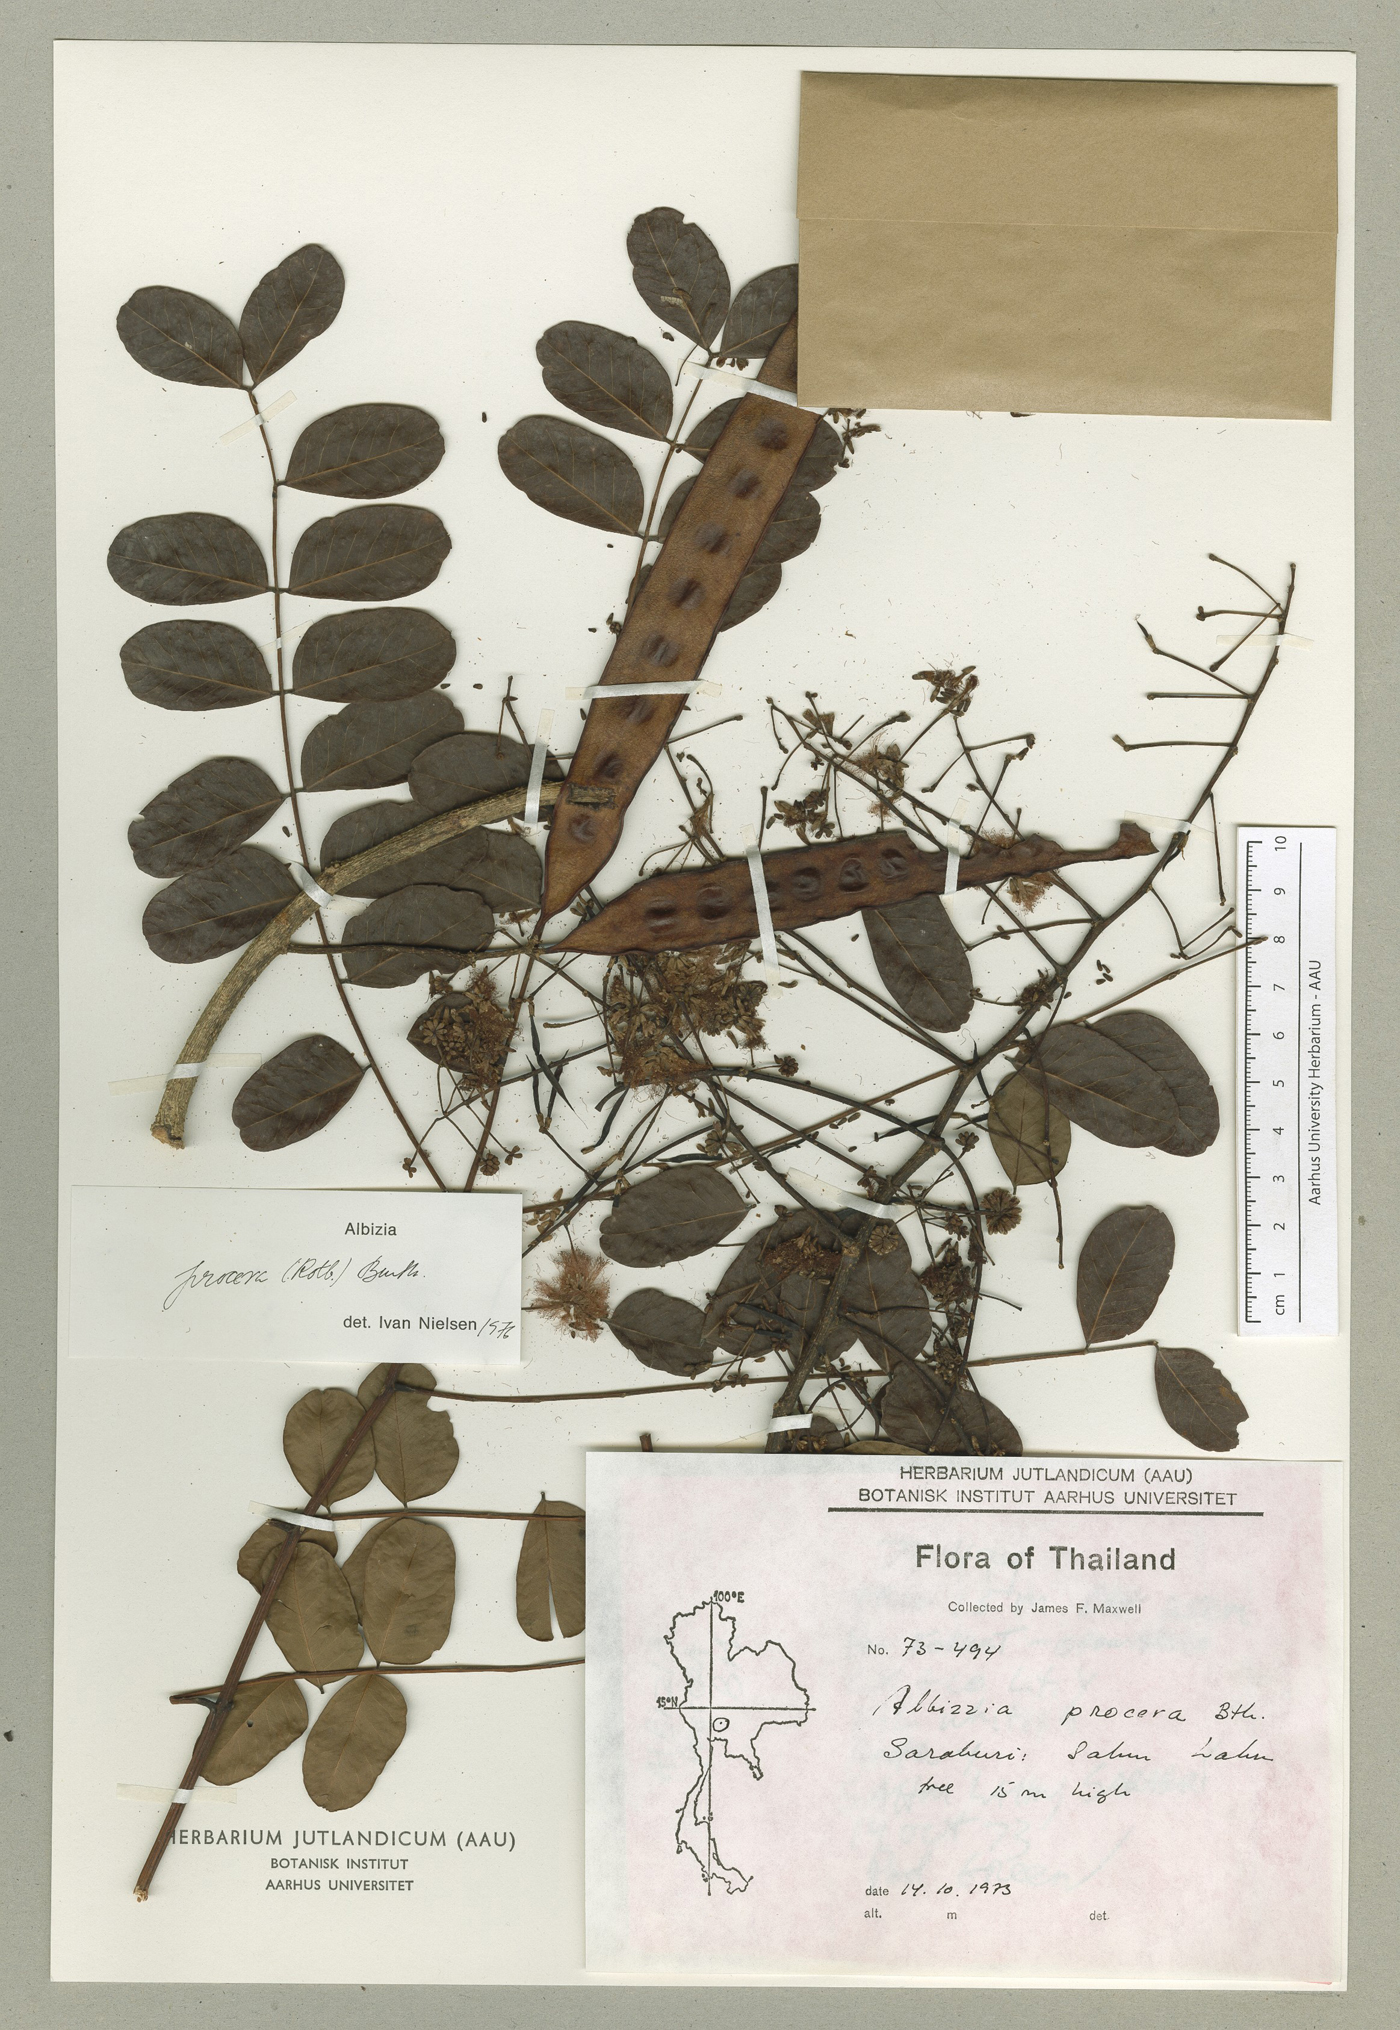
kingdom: Plantae
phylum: Tracheophyta
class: Magnoliopsida
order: Fabales
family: Fabaceae
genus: Albizia
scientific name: Albizia procera
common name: Tall albizia
